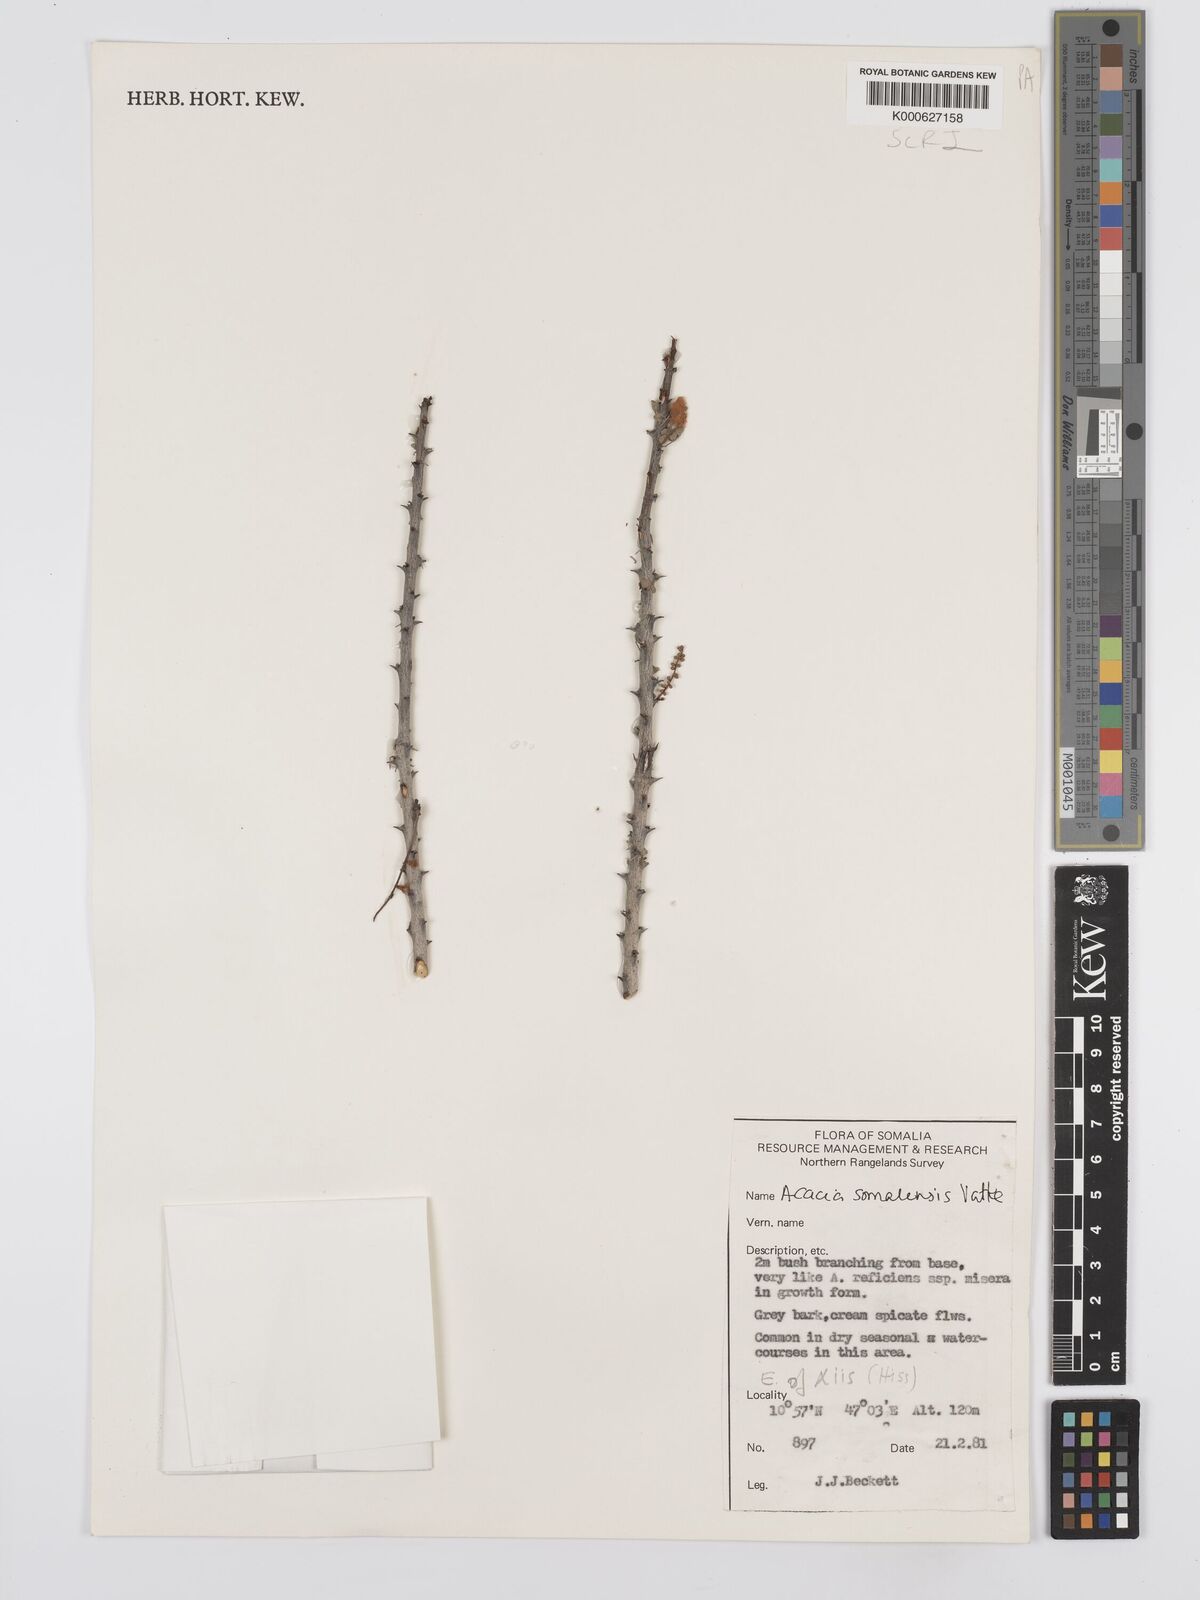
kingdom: Plantae
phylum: Tracheophyta
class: Magnoliopsida
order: Fabales
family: Fabaceae
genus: Senegalia
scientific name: Senegalia somalensis
